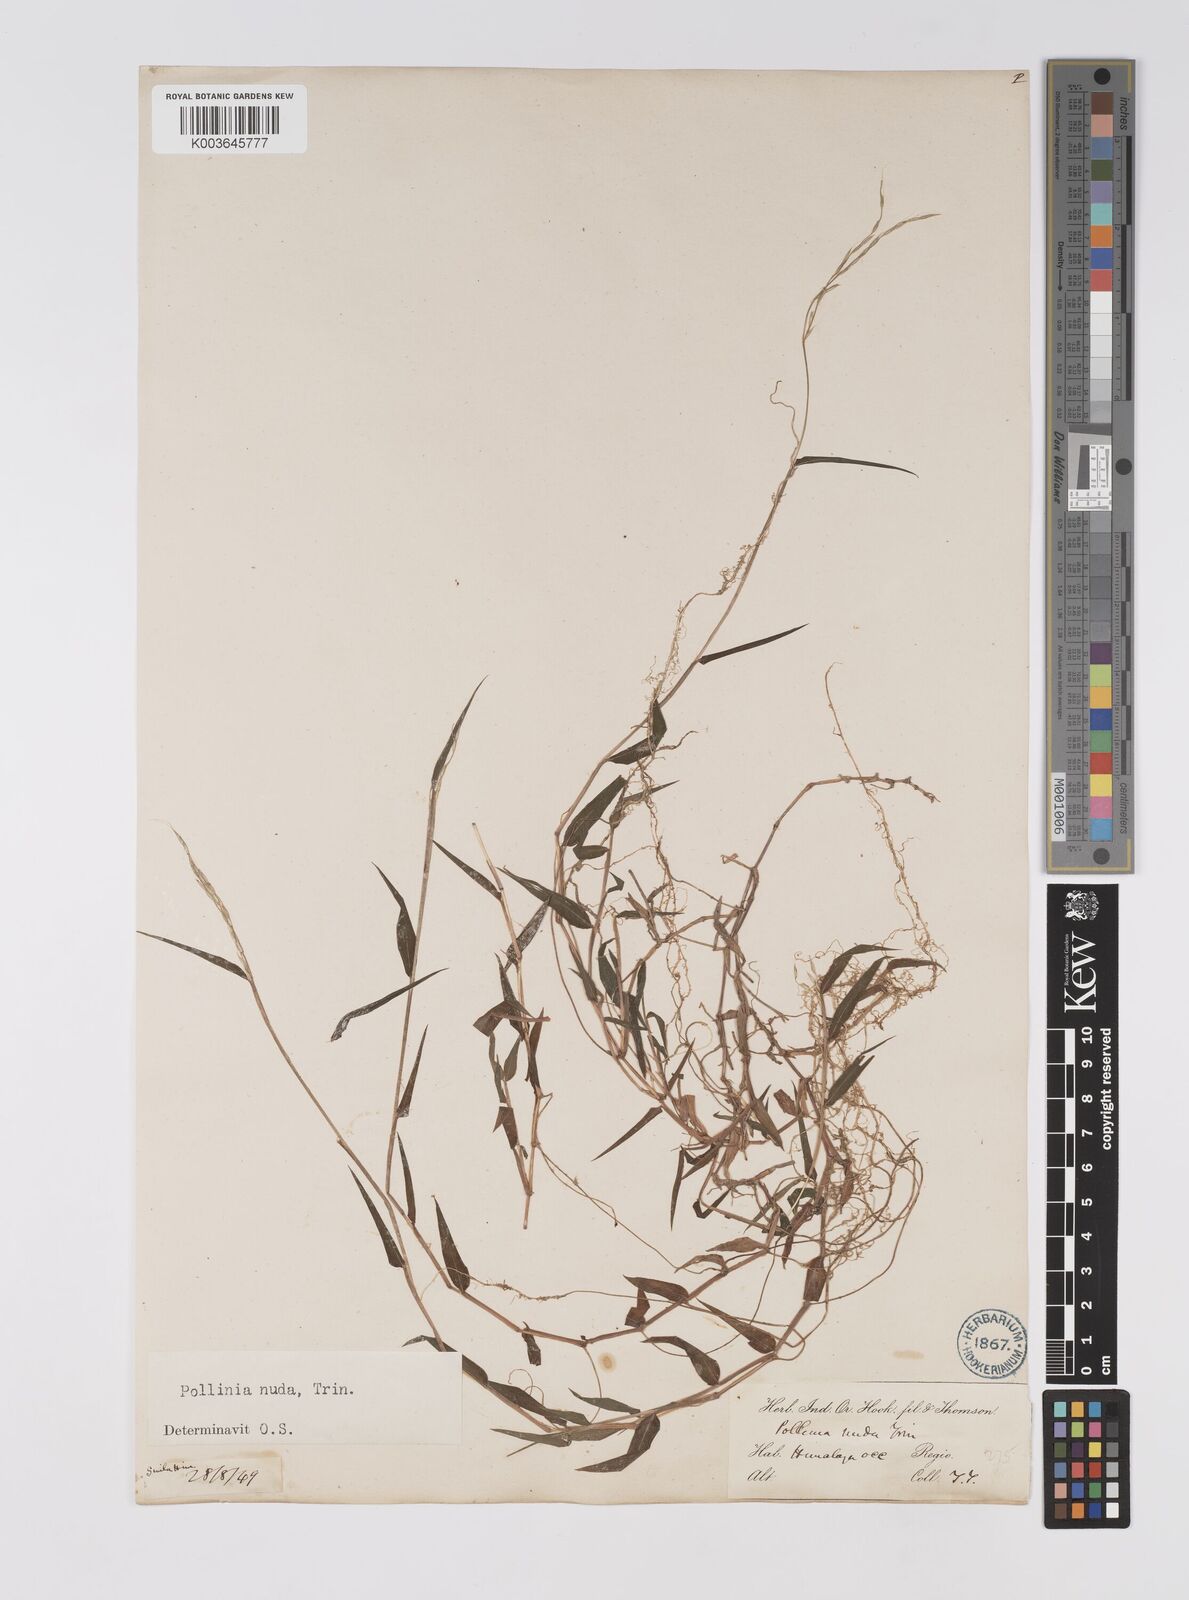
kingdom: Plantae
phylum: Tracheophyta
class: Liliopsida
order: Poales
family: Poaceae
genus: Microstegium
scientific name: Microstegium nudum
